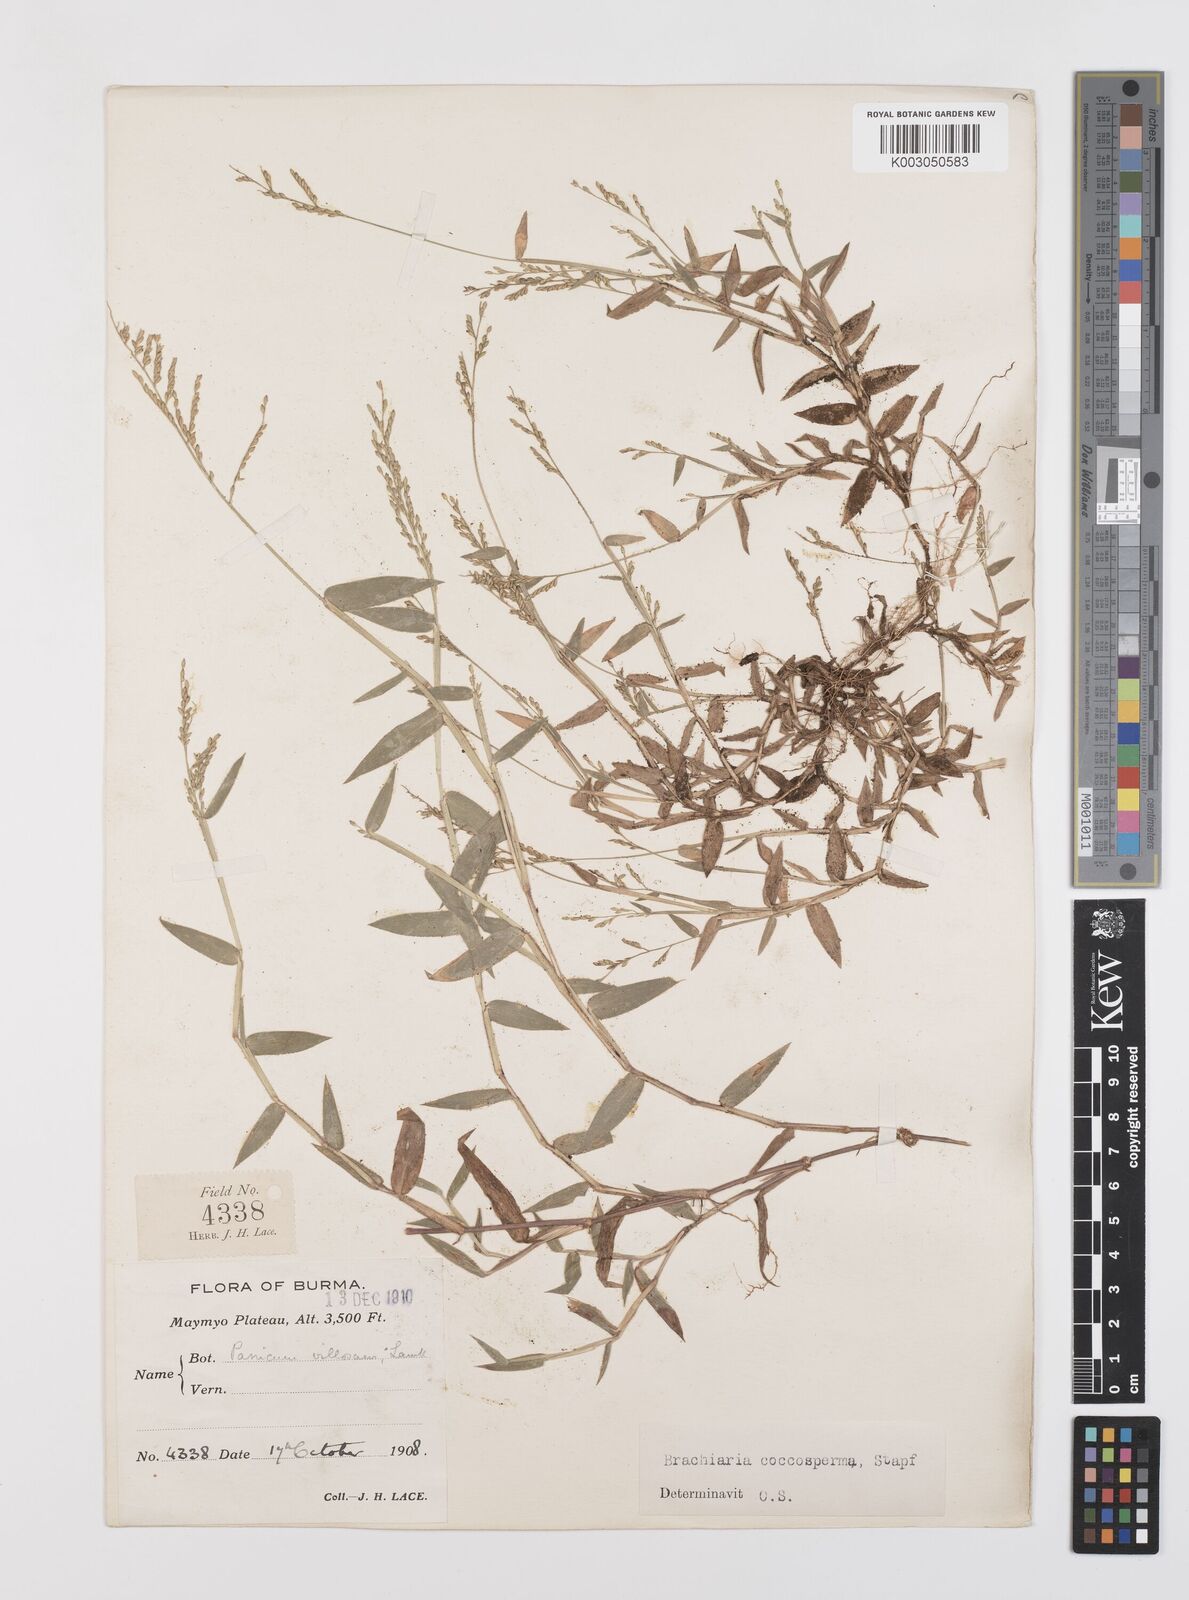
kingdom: Plantae
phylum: Tracheophyta
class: Liliopsida
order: Poales
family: Poaceae
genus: Urochloa
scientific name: Urochloa villosa
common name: Hairy signalgrass
